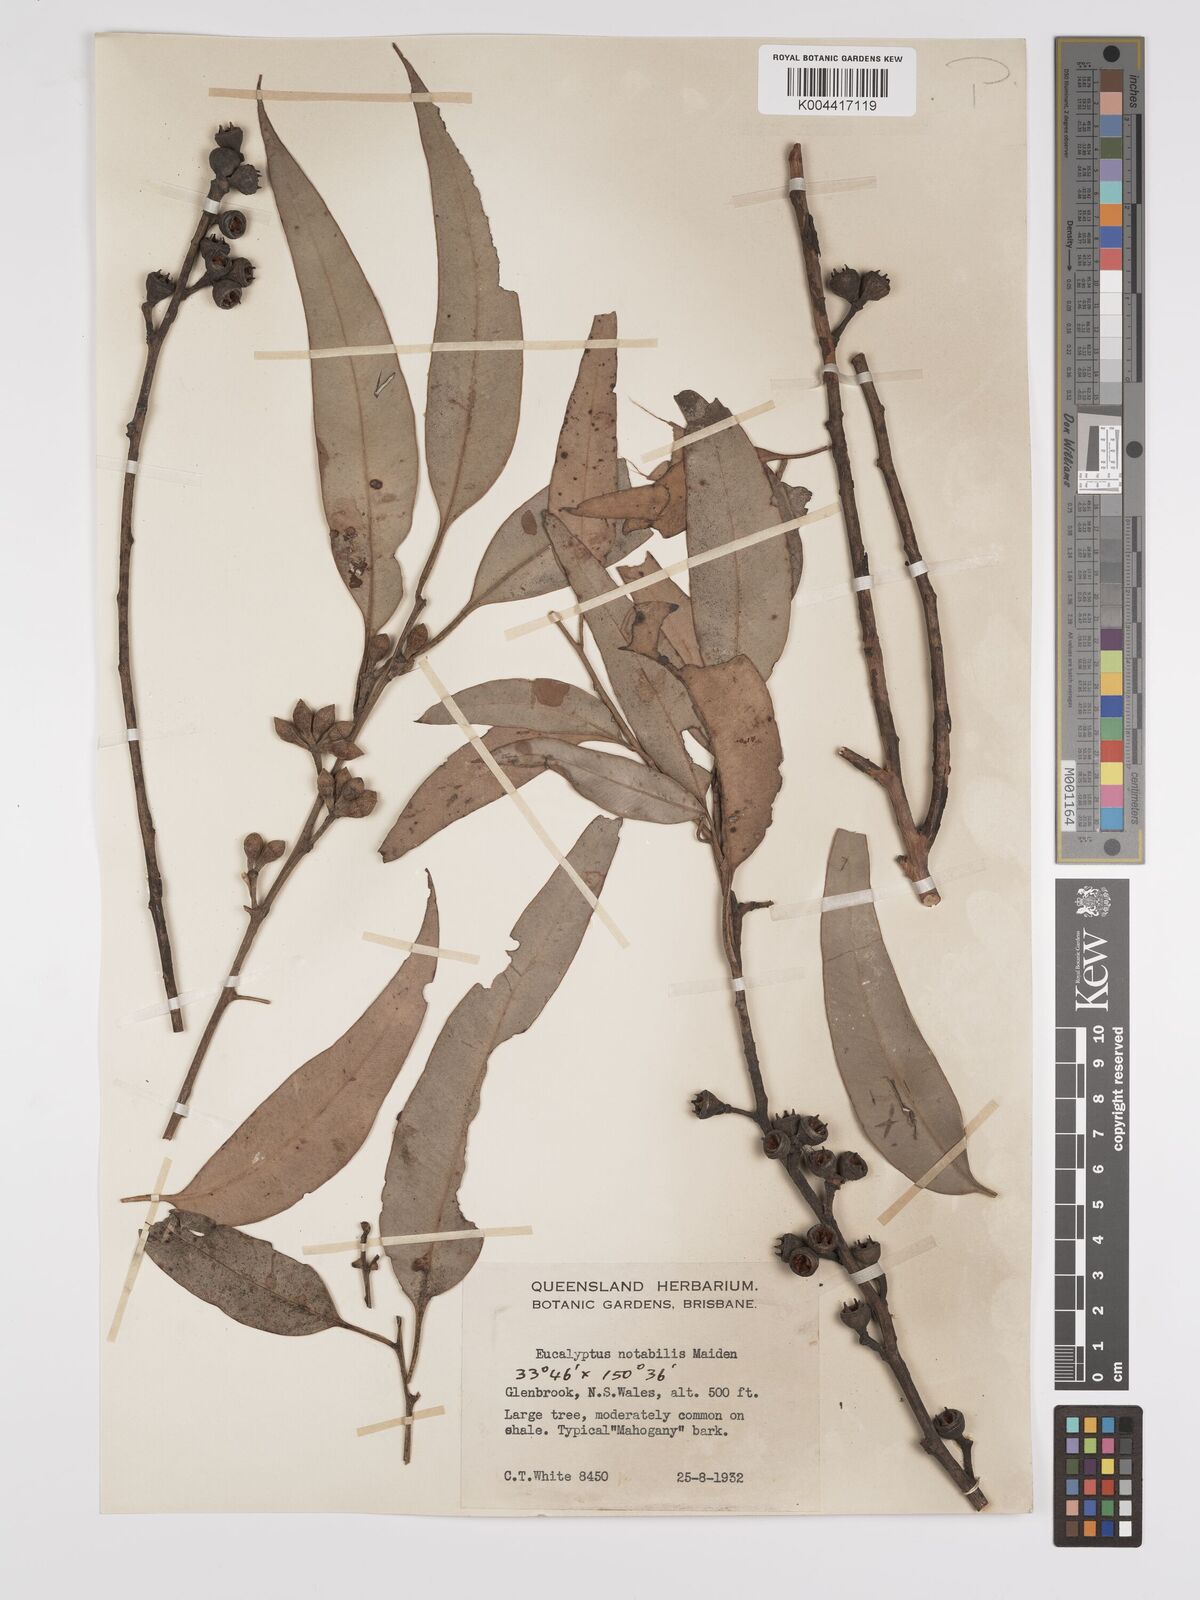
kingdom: Plantae
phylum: Tracheophyta
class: Magnoliopsida
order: Myrtales
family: Myrtaceae
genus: Eucalyptus
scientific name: Eucalyptus notabilis
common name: Blue mountains-mahogany
